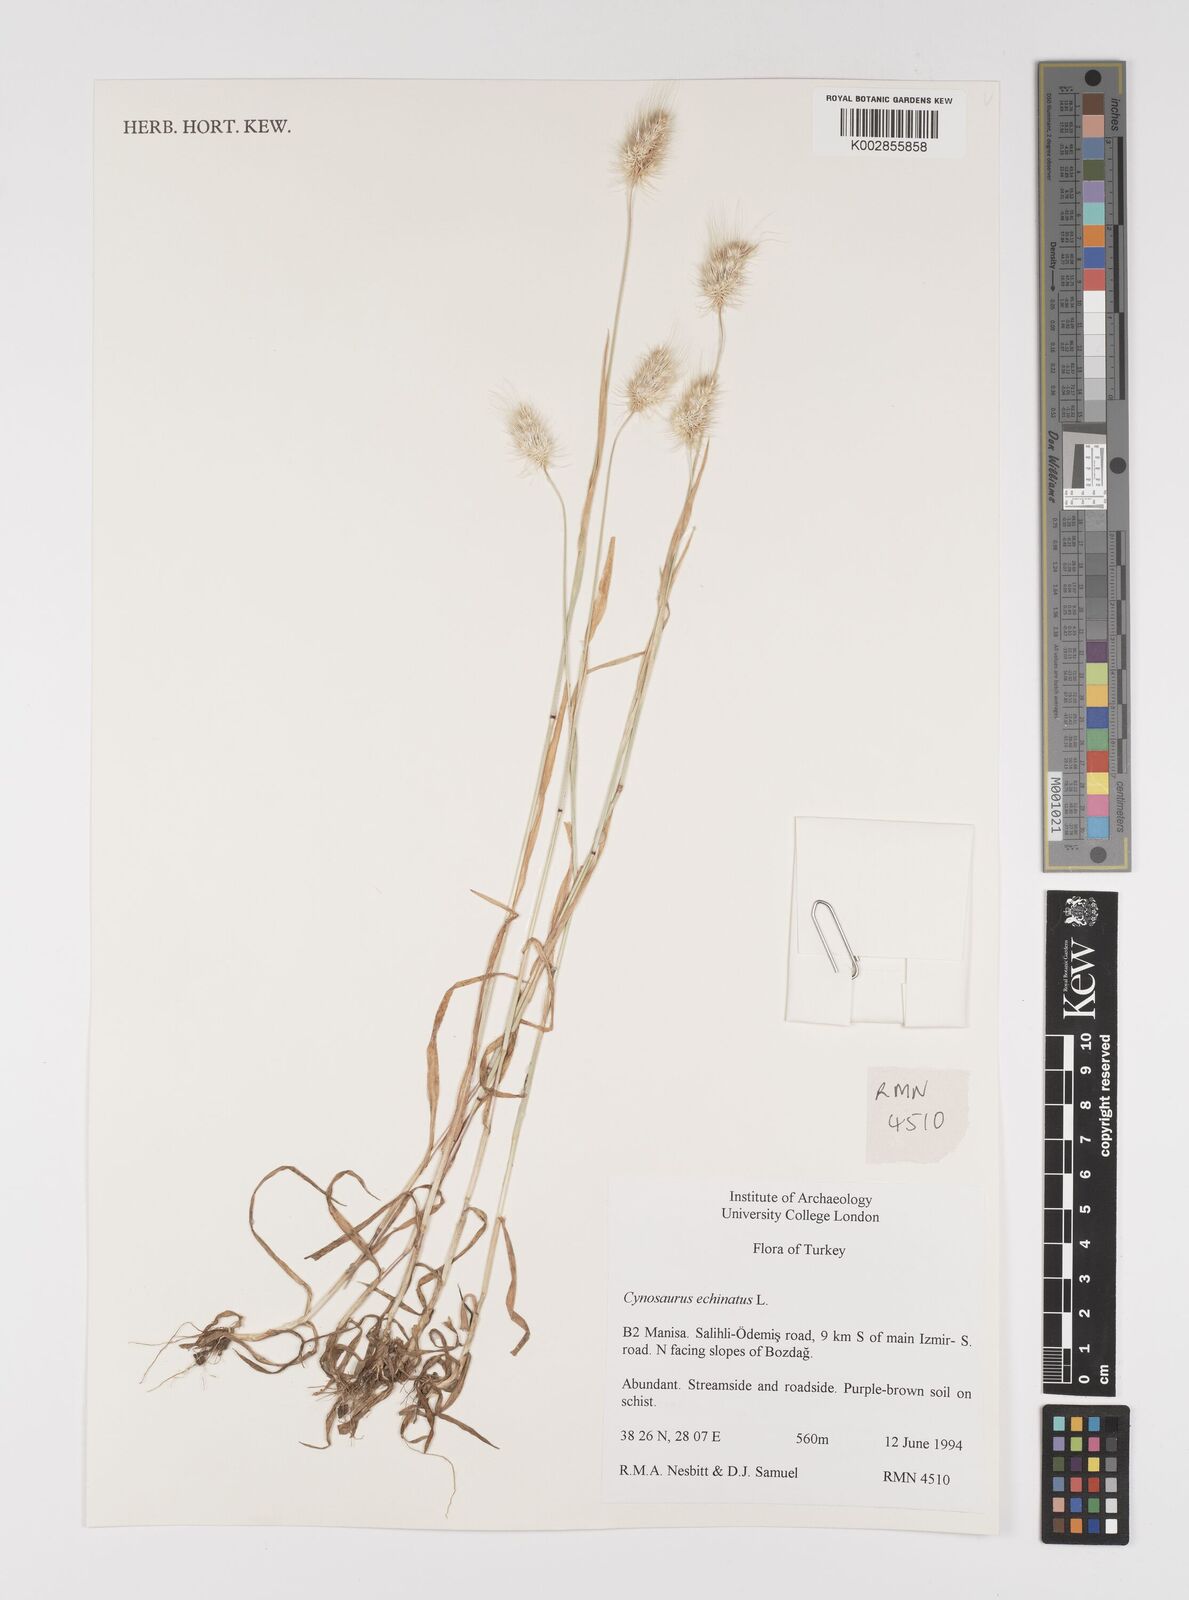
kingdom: Plantae
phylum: Tracheophyta
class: Liliopsida
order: Poales
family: Poaceae
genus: Cynosurus
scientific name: Cynosurus echinatus
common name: Rough dog's-tail
